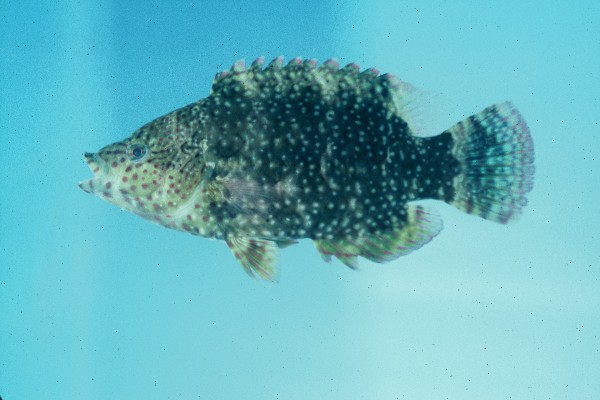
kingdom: Animalia
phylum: Chordata
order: Perciformes
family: Labridae
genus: Cheilinus
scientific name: Cheilinus chlorourus
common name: Floral wrasse
